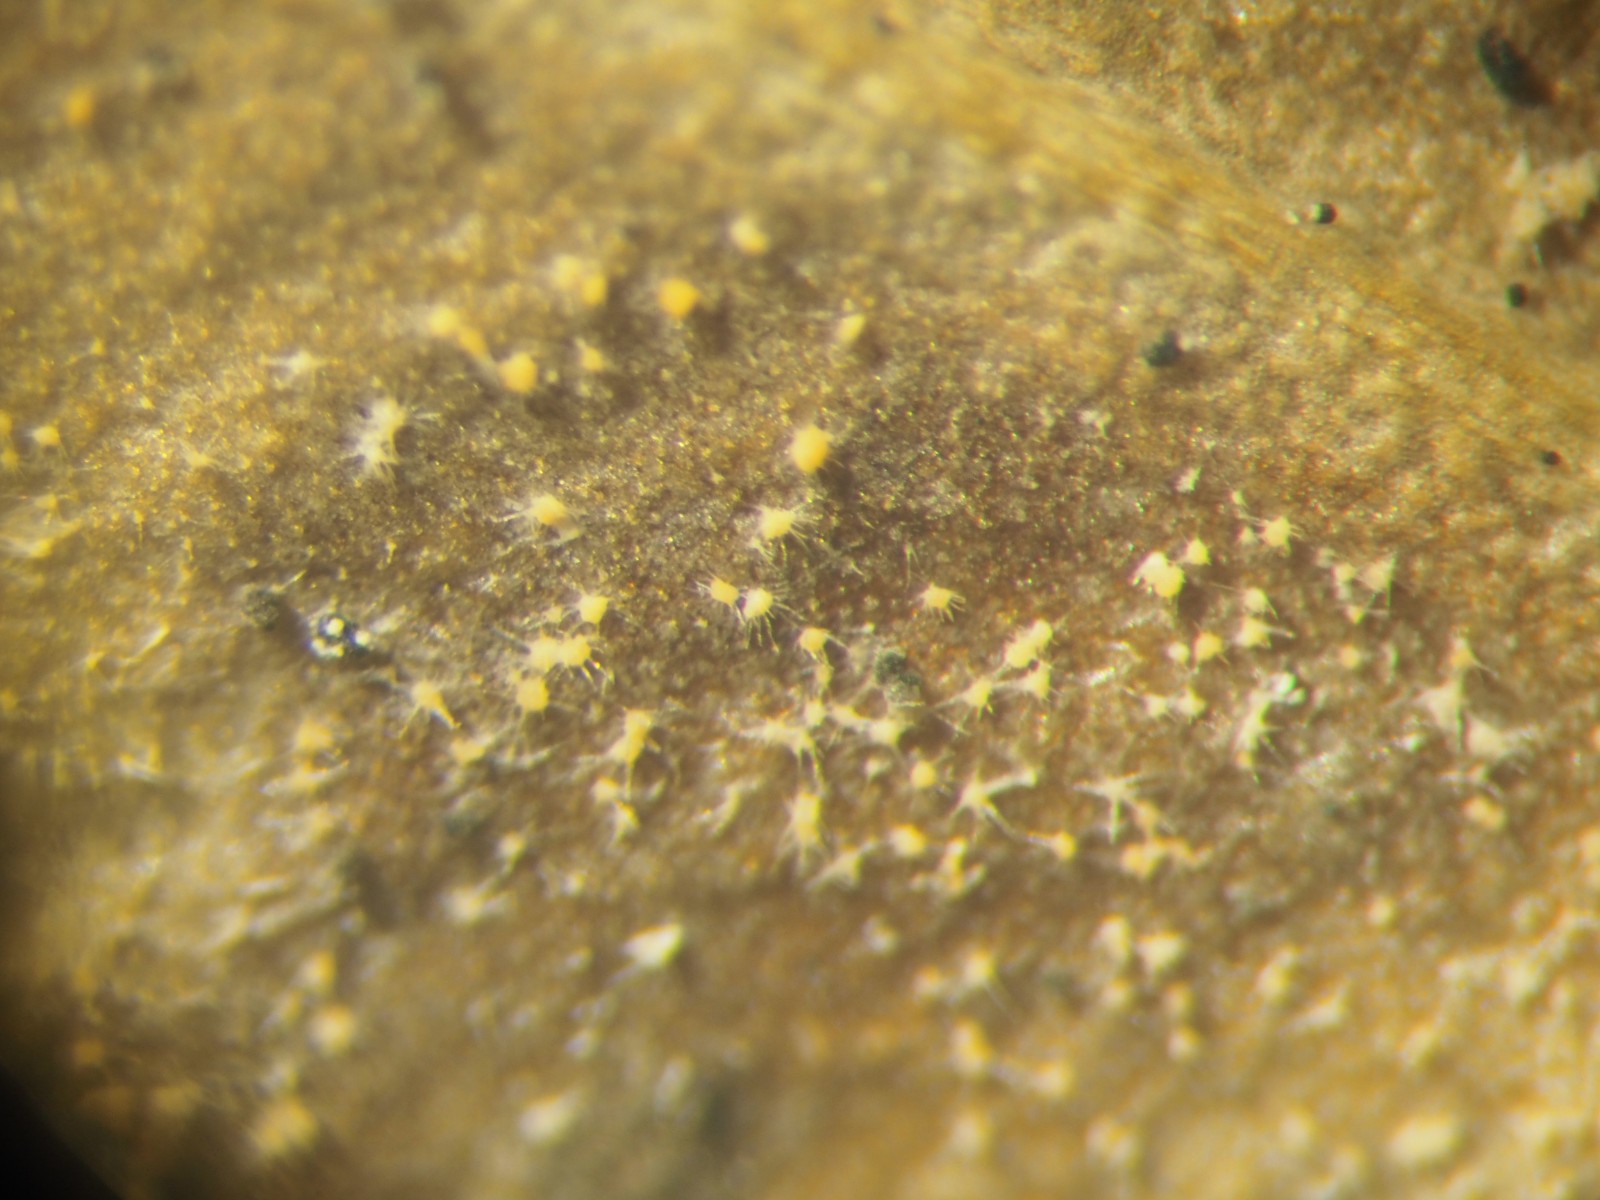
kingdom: Fungi
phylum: Ascomycota
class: Sordariomycetes
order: Hypocreales
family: Nectriaceae
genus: Pseudonectria
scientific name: Pseudonectria buxi
